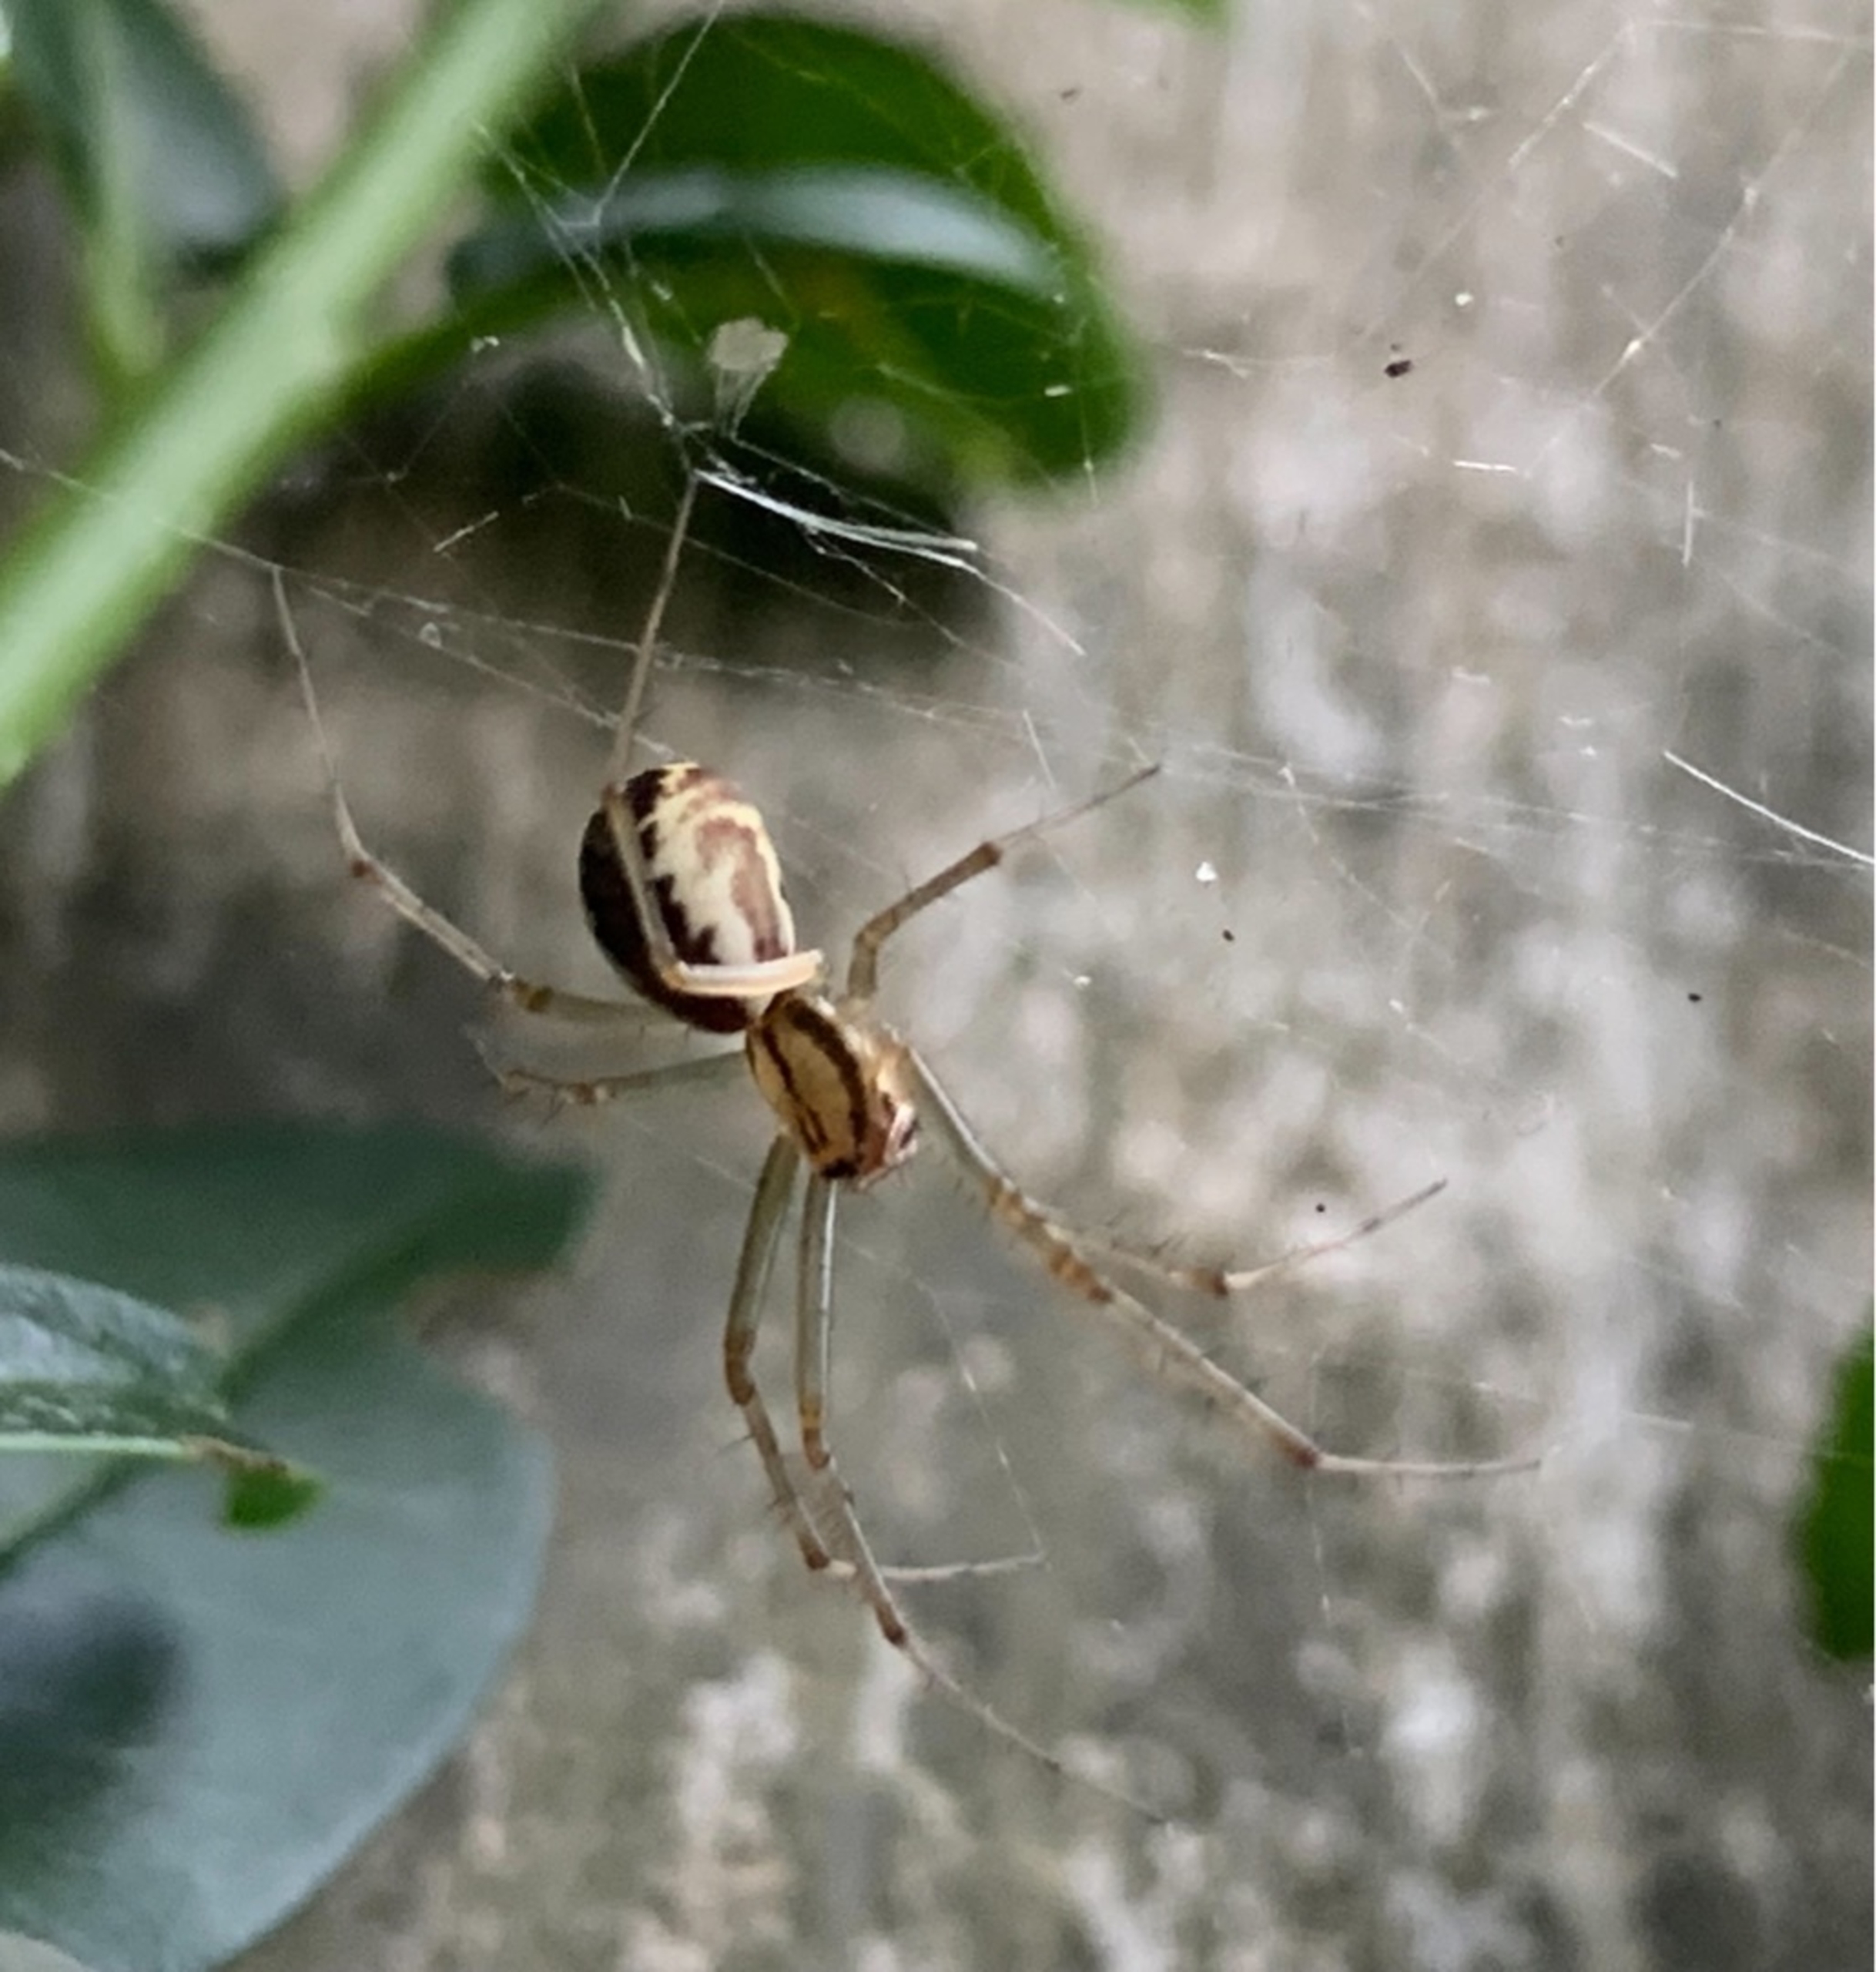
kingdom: Animalia
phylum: Arthropoda
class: Arachnida
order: Araneae
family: Linyphiidae
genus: Linyphia
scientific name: Linyphia triangularis
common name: Almindelig baldakinspinder
